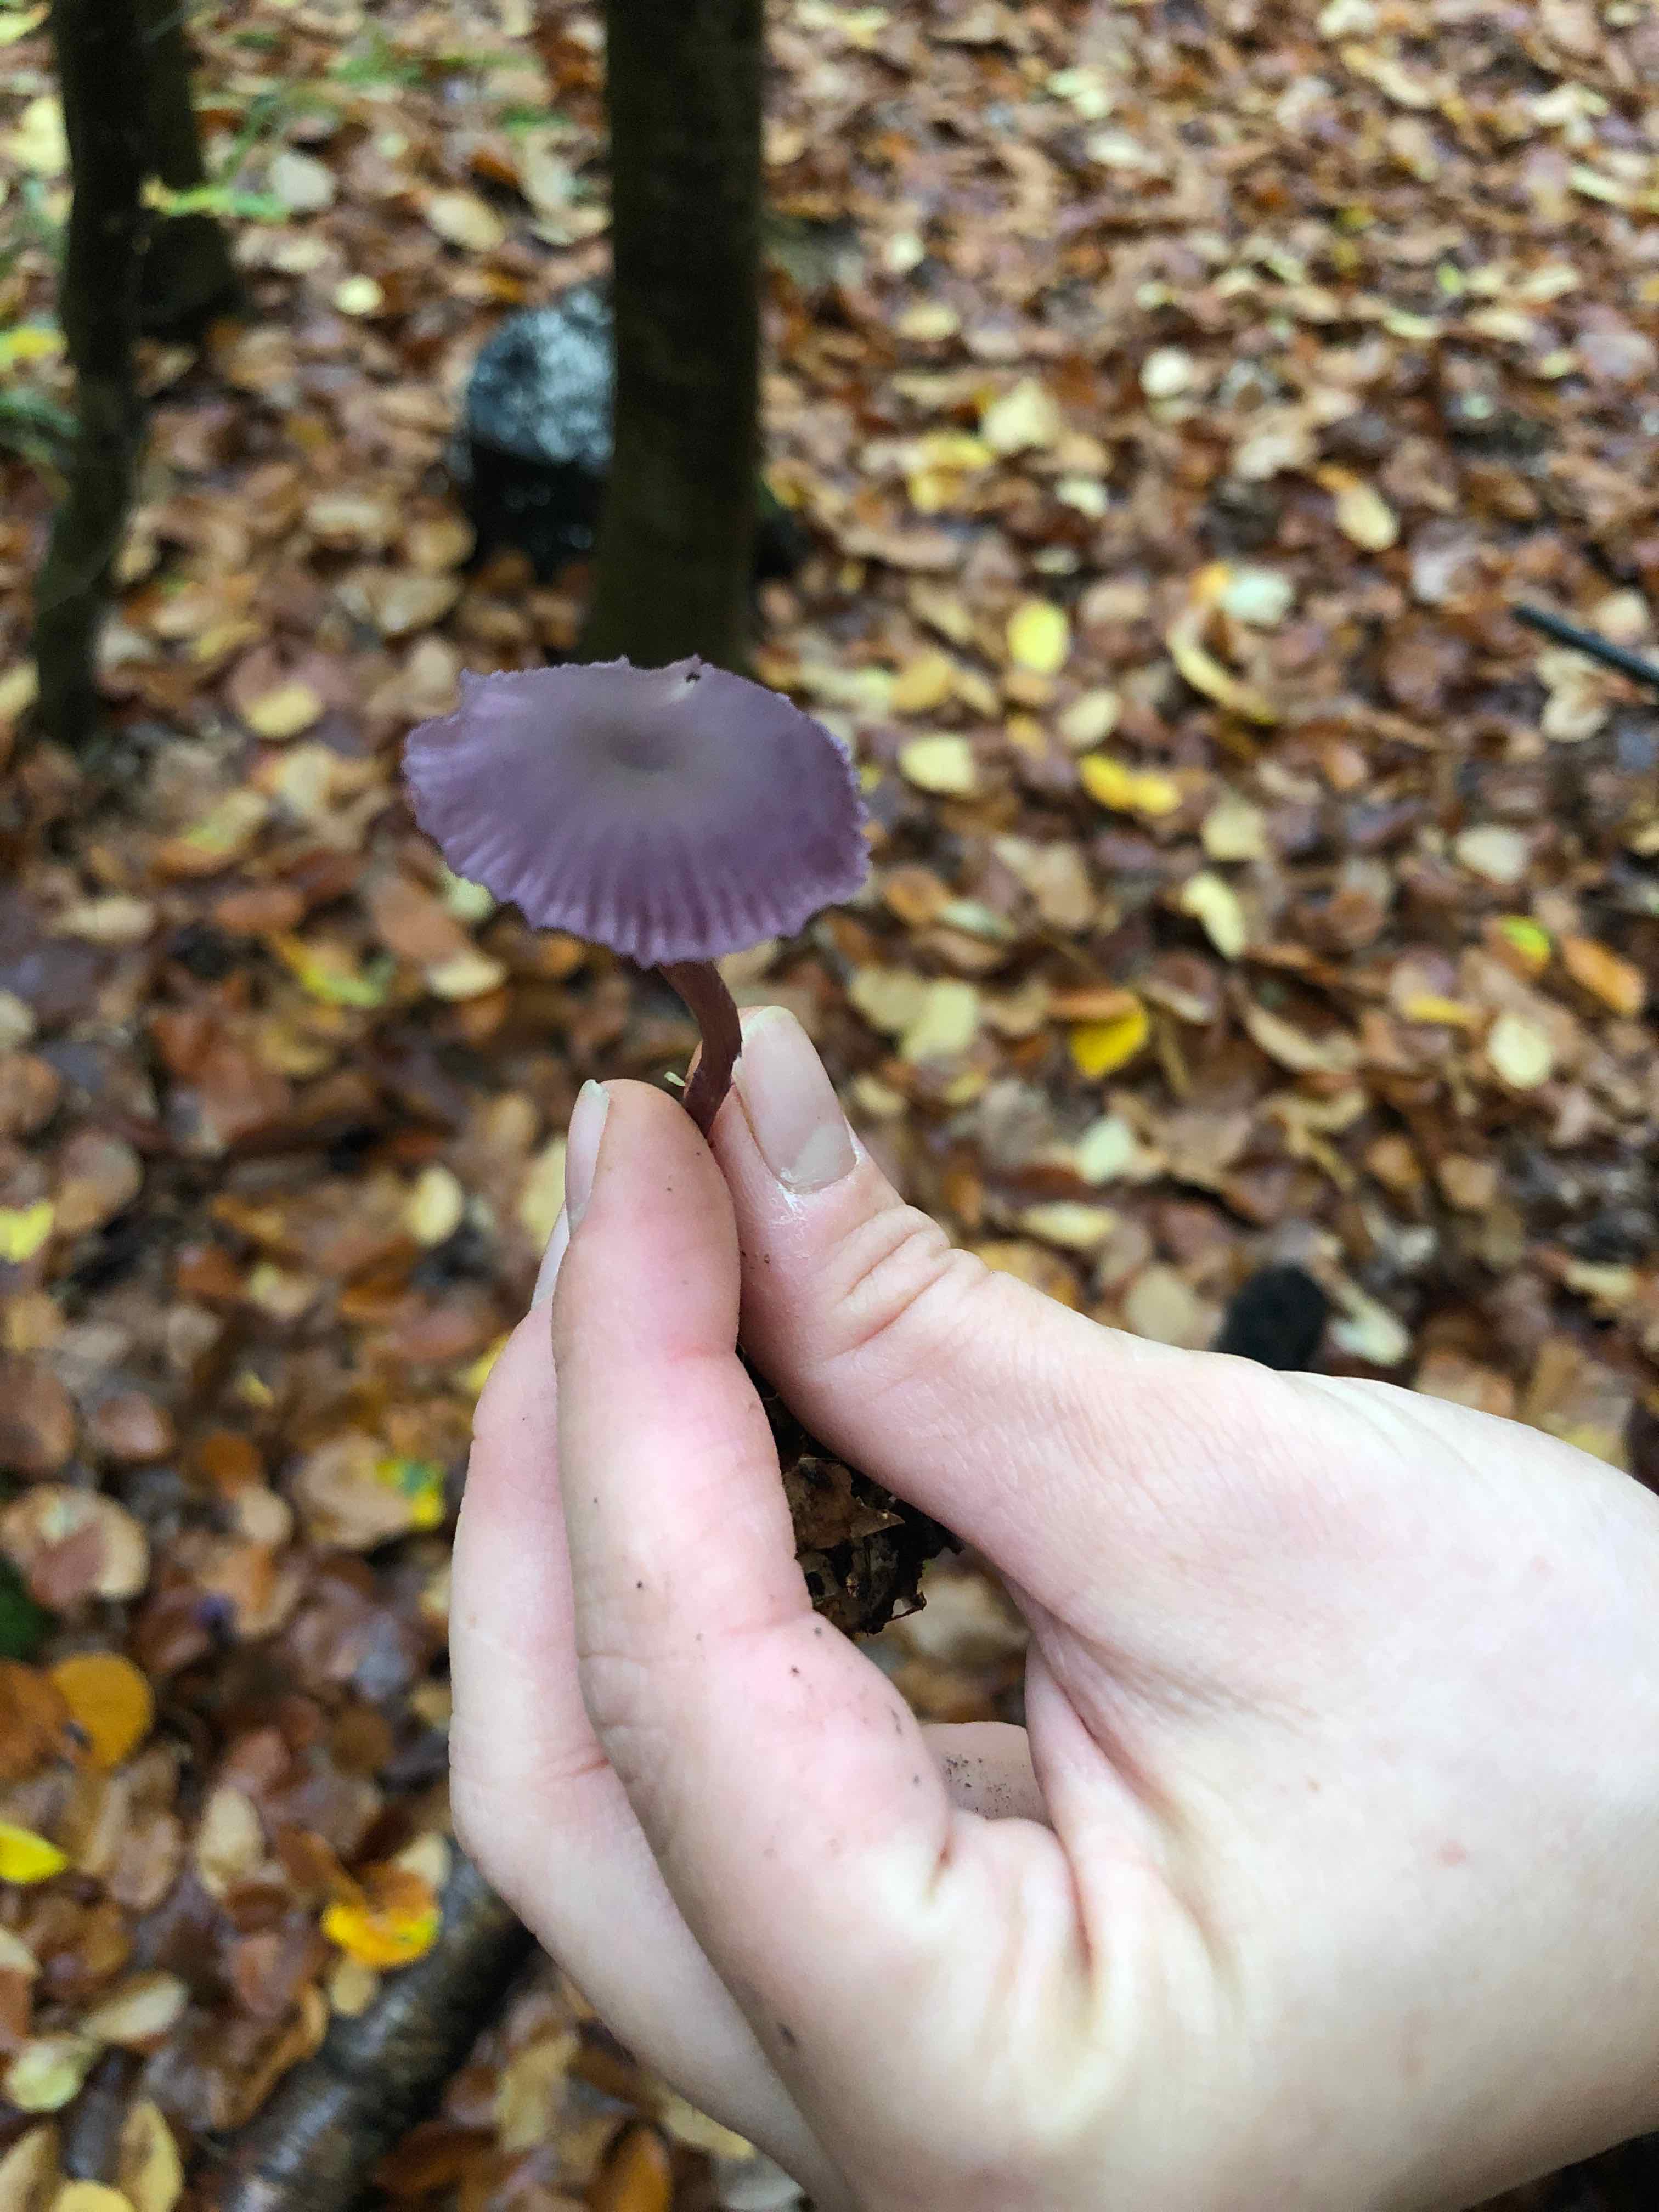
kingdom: Fungi
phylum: Basidiomycota
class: Agaricomycetes
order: Agaricales
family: Hydnangiaceae
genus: Laccaria
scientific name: Laccaria amethystina
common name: violet ametysthat
